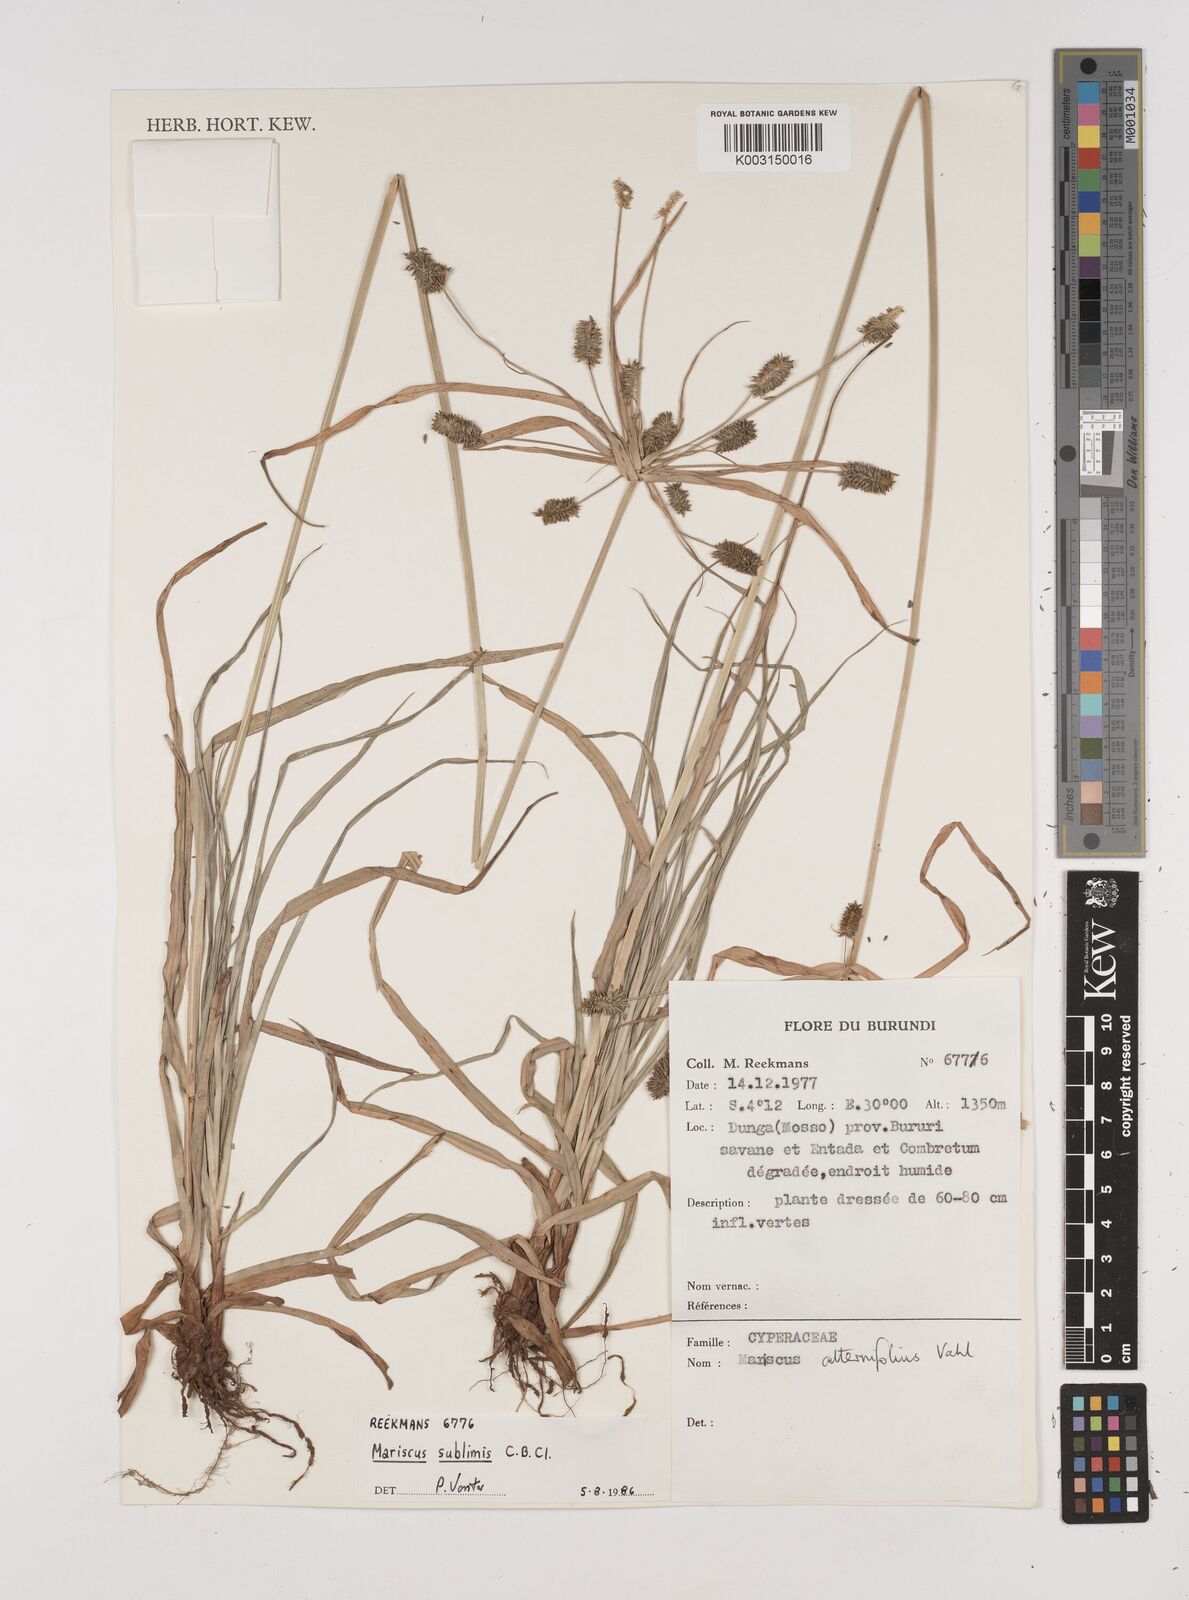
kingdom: Plantae
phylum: Tracheophyta
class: Liliopsida
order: Poales
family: Cyperaceae
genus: Cyperus
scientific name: Cyperus cyperoides
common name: Pacific island flat sedge
